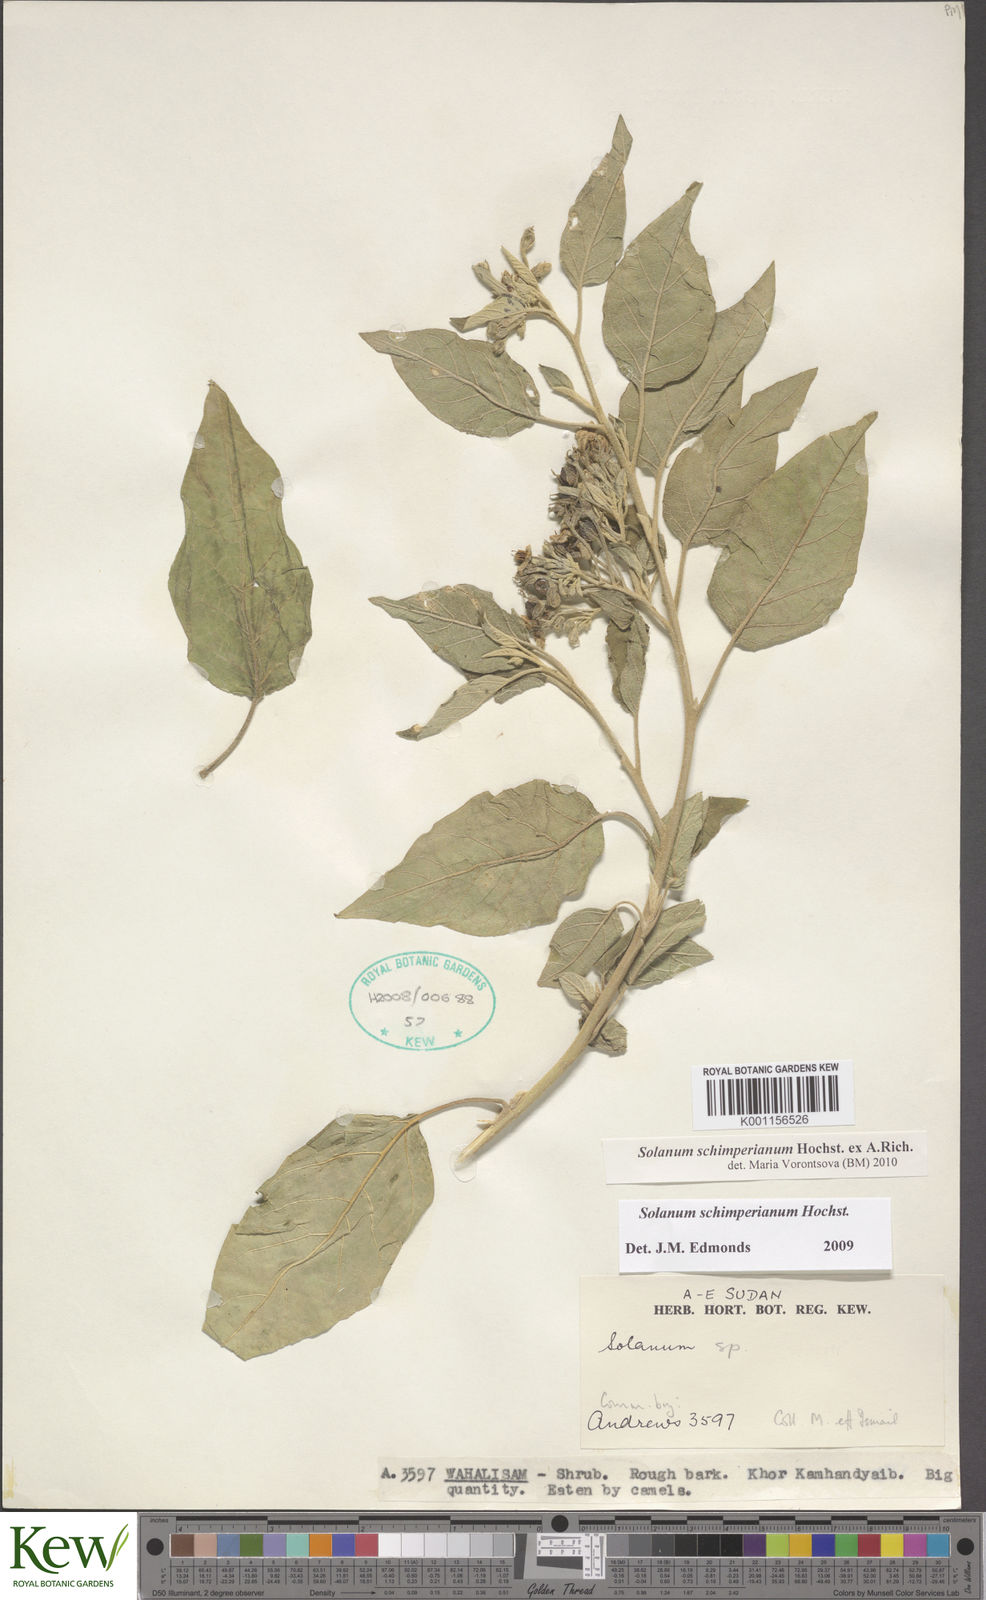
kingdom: Plantae
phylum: Tracheophyta
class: Magnoliopsida
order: Solanales
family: Solanaceae
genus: Solanum
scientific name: Solanum
